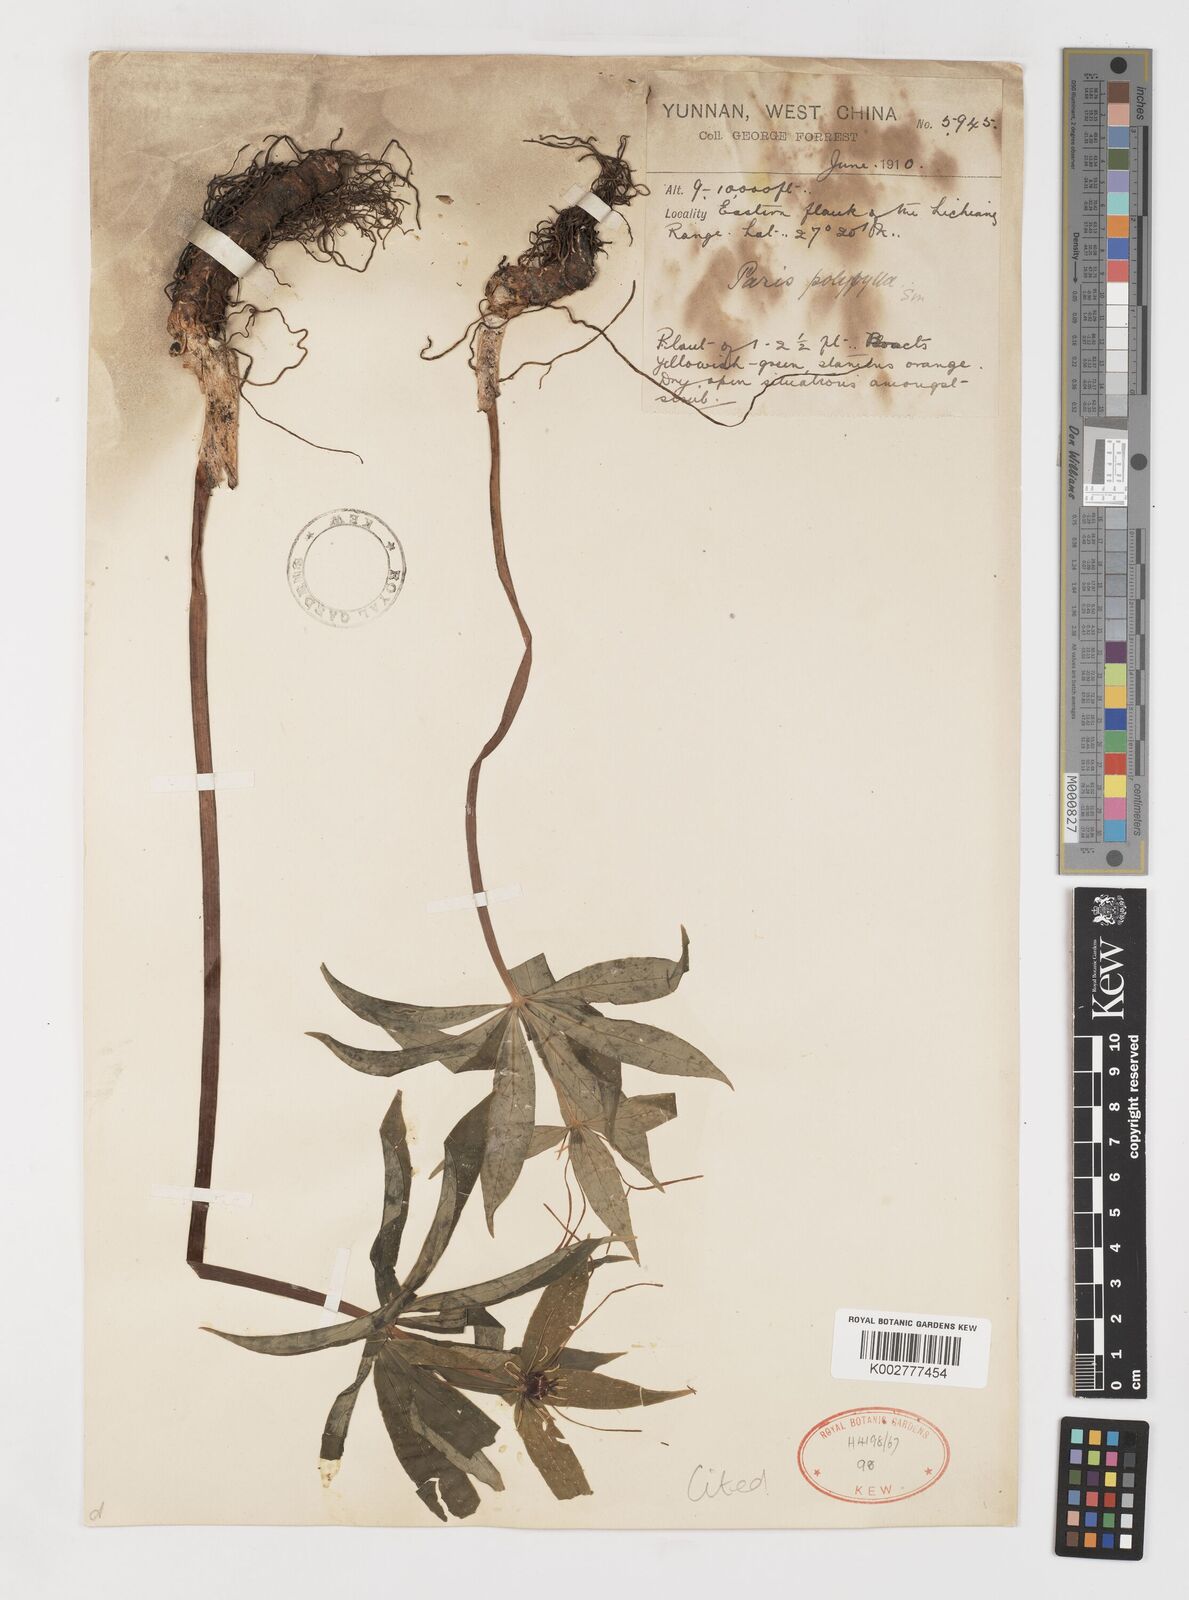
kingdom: Plantae
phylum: Tracheophyta
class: Liliopsida
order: Liliales
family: Melanthiaceae
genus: Paris
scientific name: Paris polyphylla
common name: Love apple
